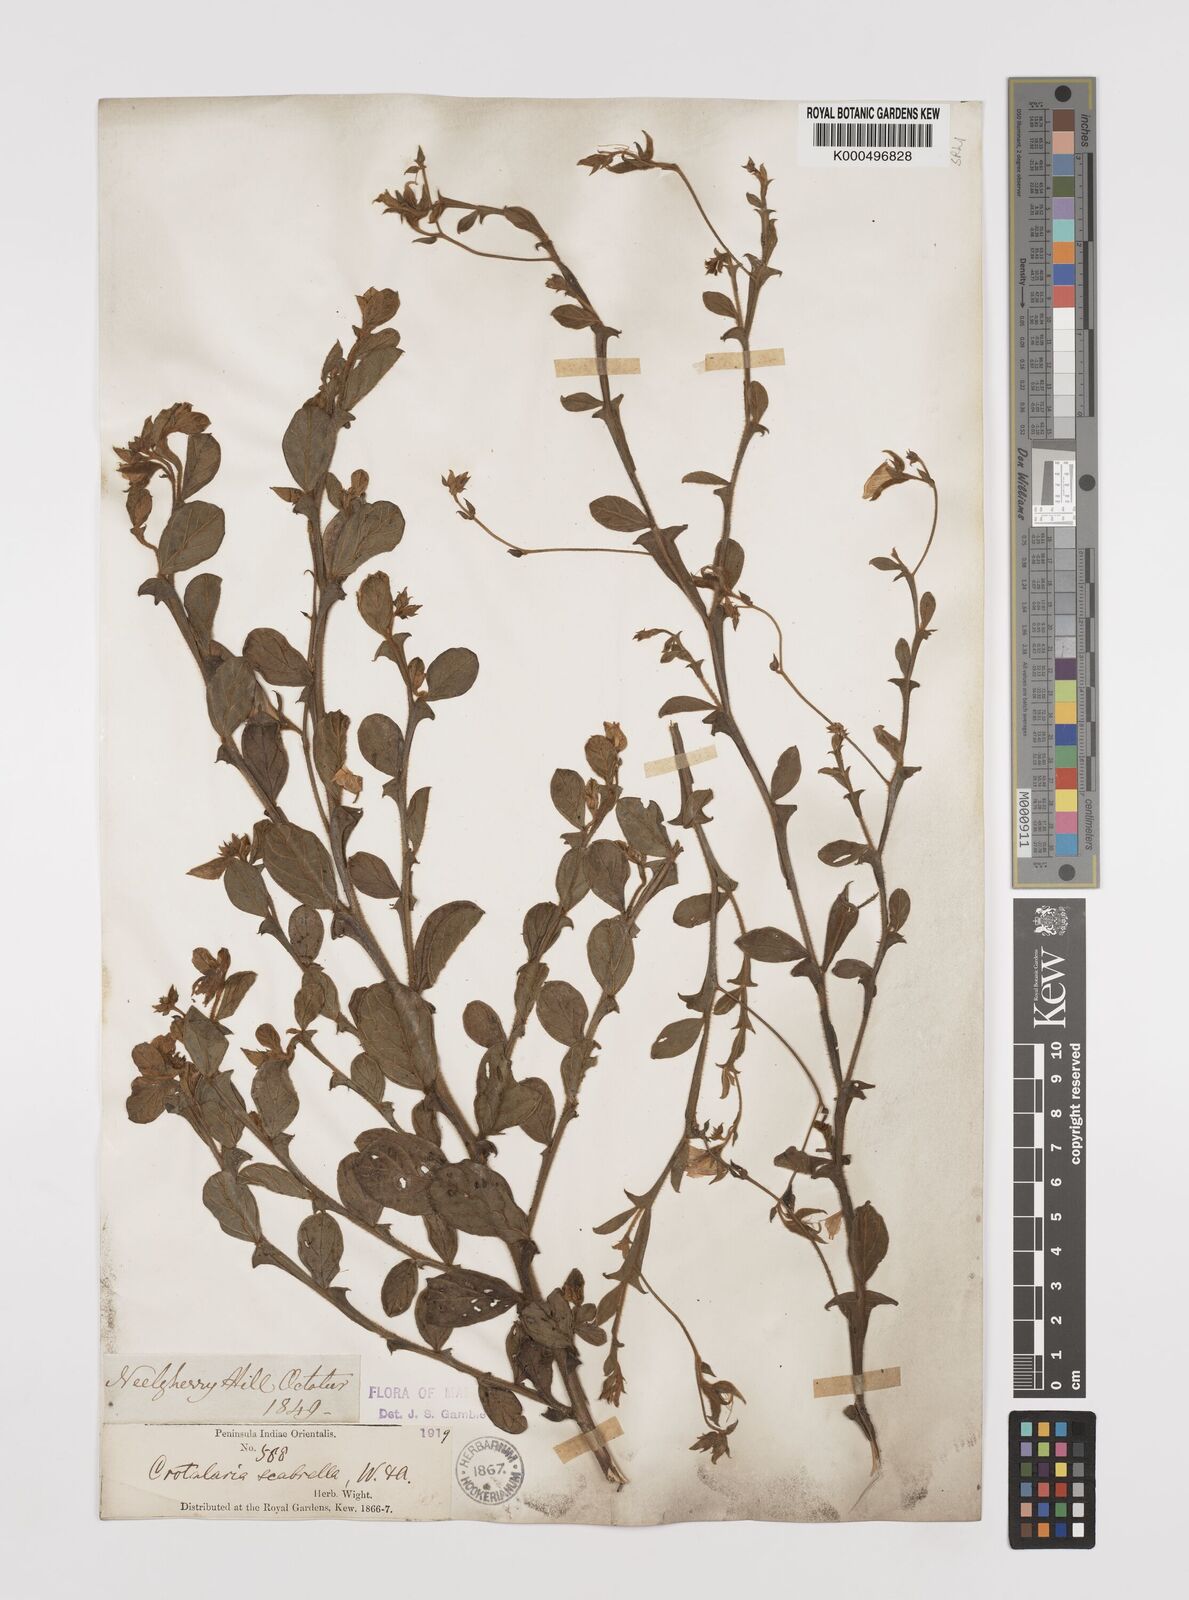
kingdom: Plantae
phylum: Tracheophyta
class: Magnoliopsida
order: Fabales
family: Fabaceae
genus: Crotalaria
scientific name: Crotalaria scabrella
